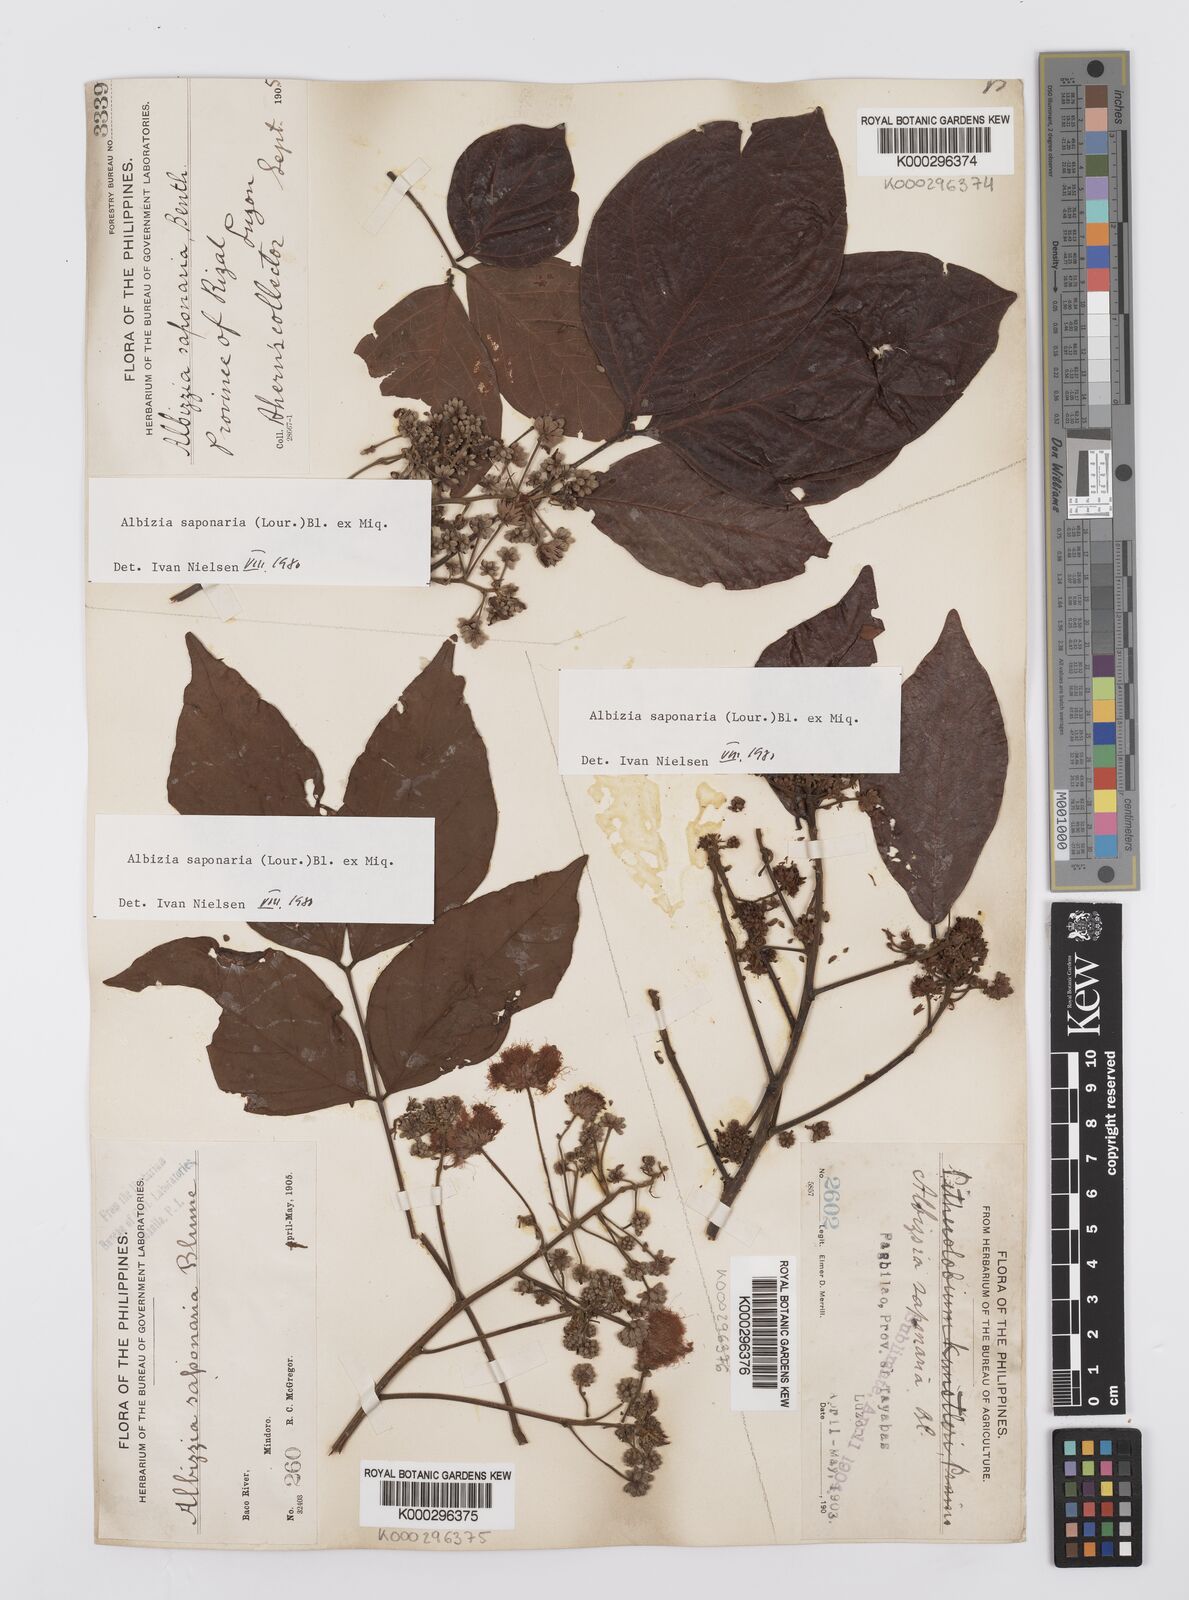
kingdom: Plantae
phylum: Tracheophyta
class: Magnoliopsida
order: Fabales
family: Fabaceae
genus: Albizia
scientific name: Albizia saponaria
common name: Whiteflower albizia
